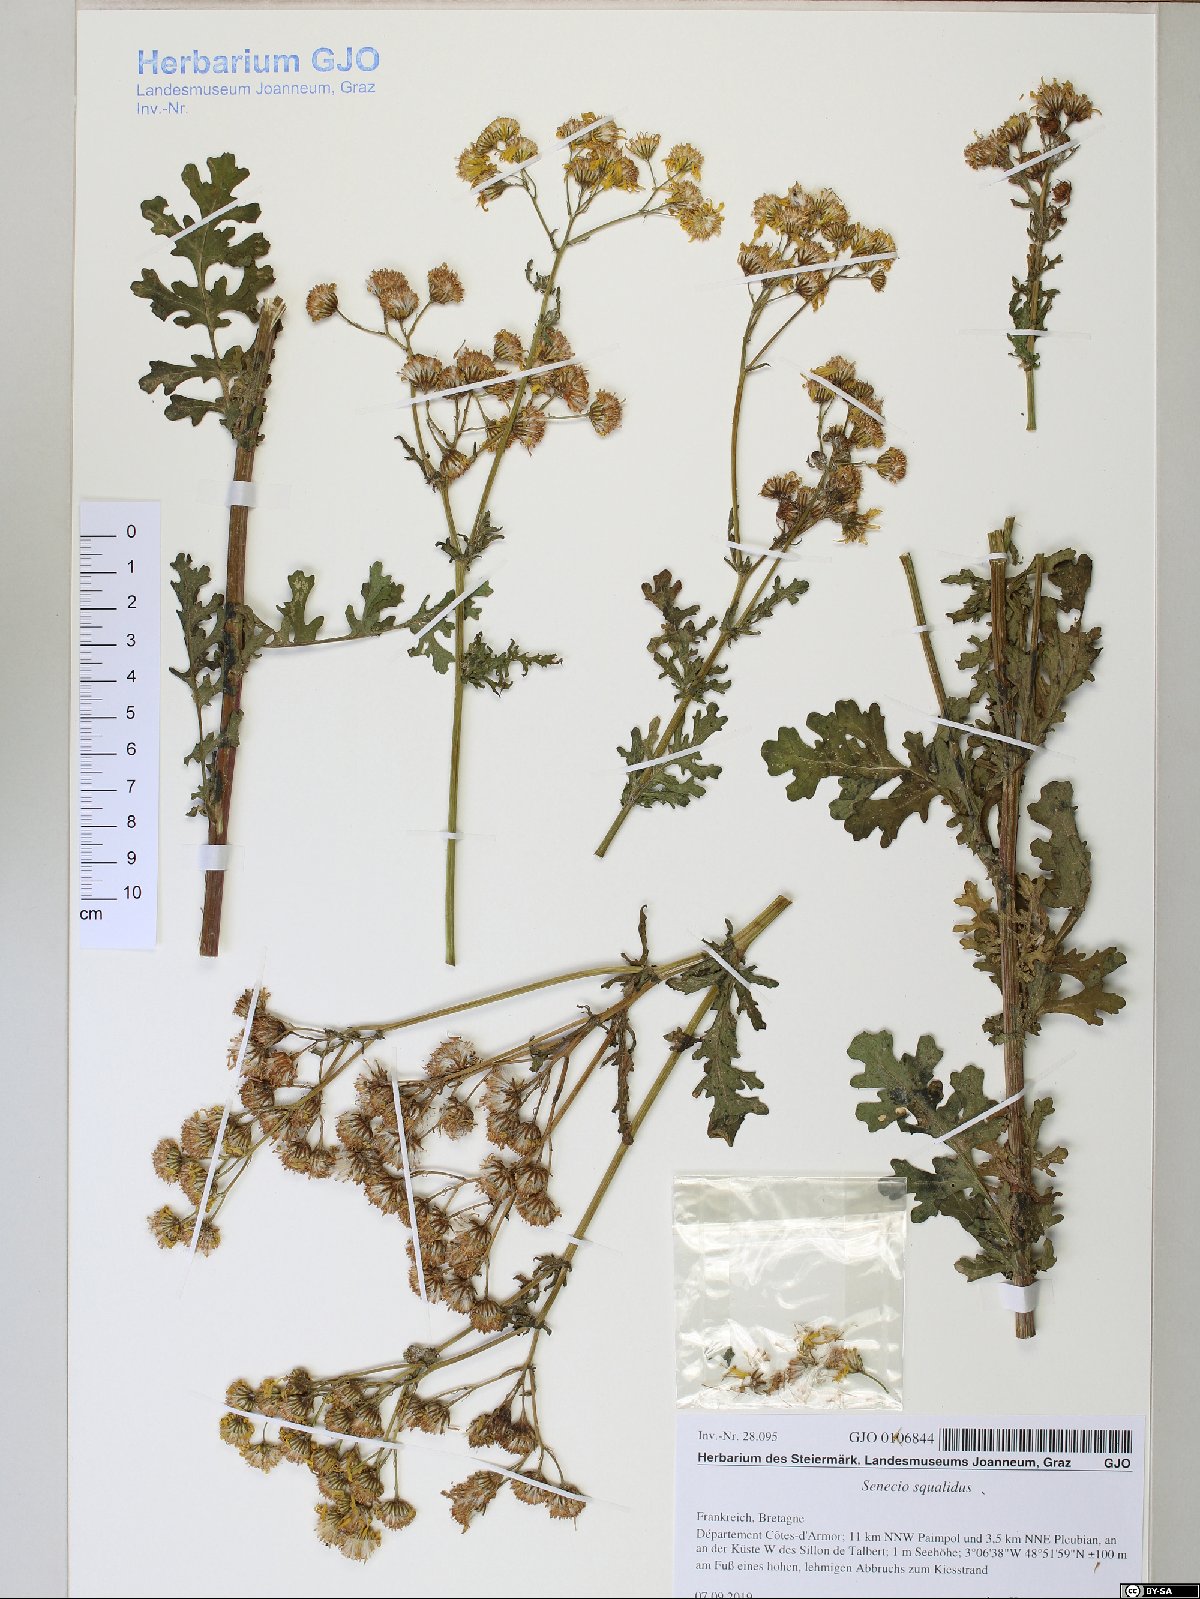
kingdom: Plantae
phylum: Tracheophyta
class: Magnoliopsida
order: Asterales
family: Asteraceae
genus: Senecio
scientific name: Senecio squalidus
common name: Oxford ragwort
